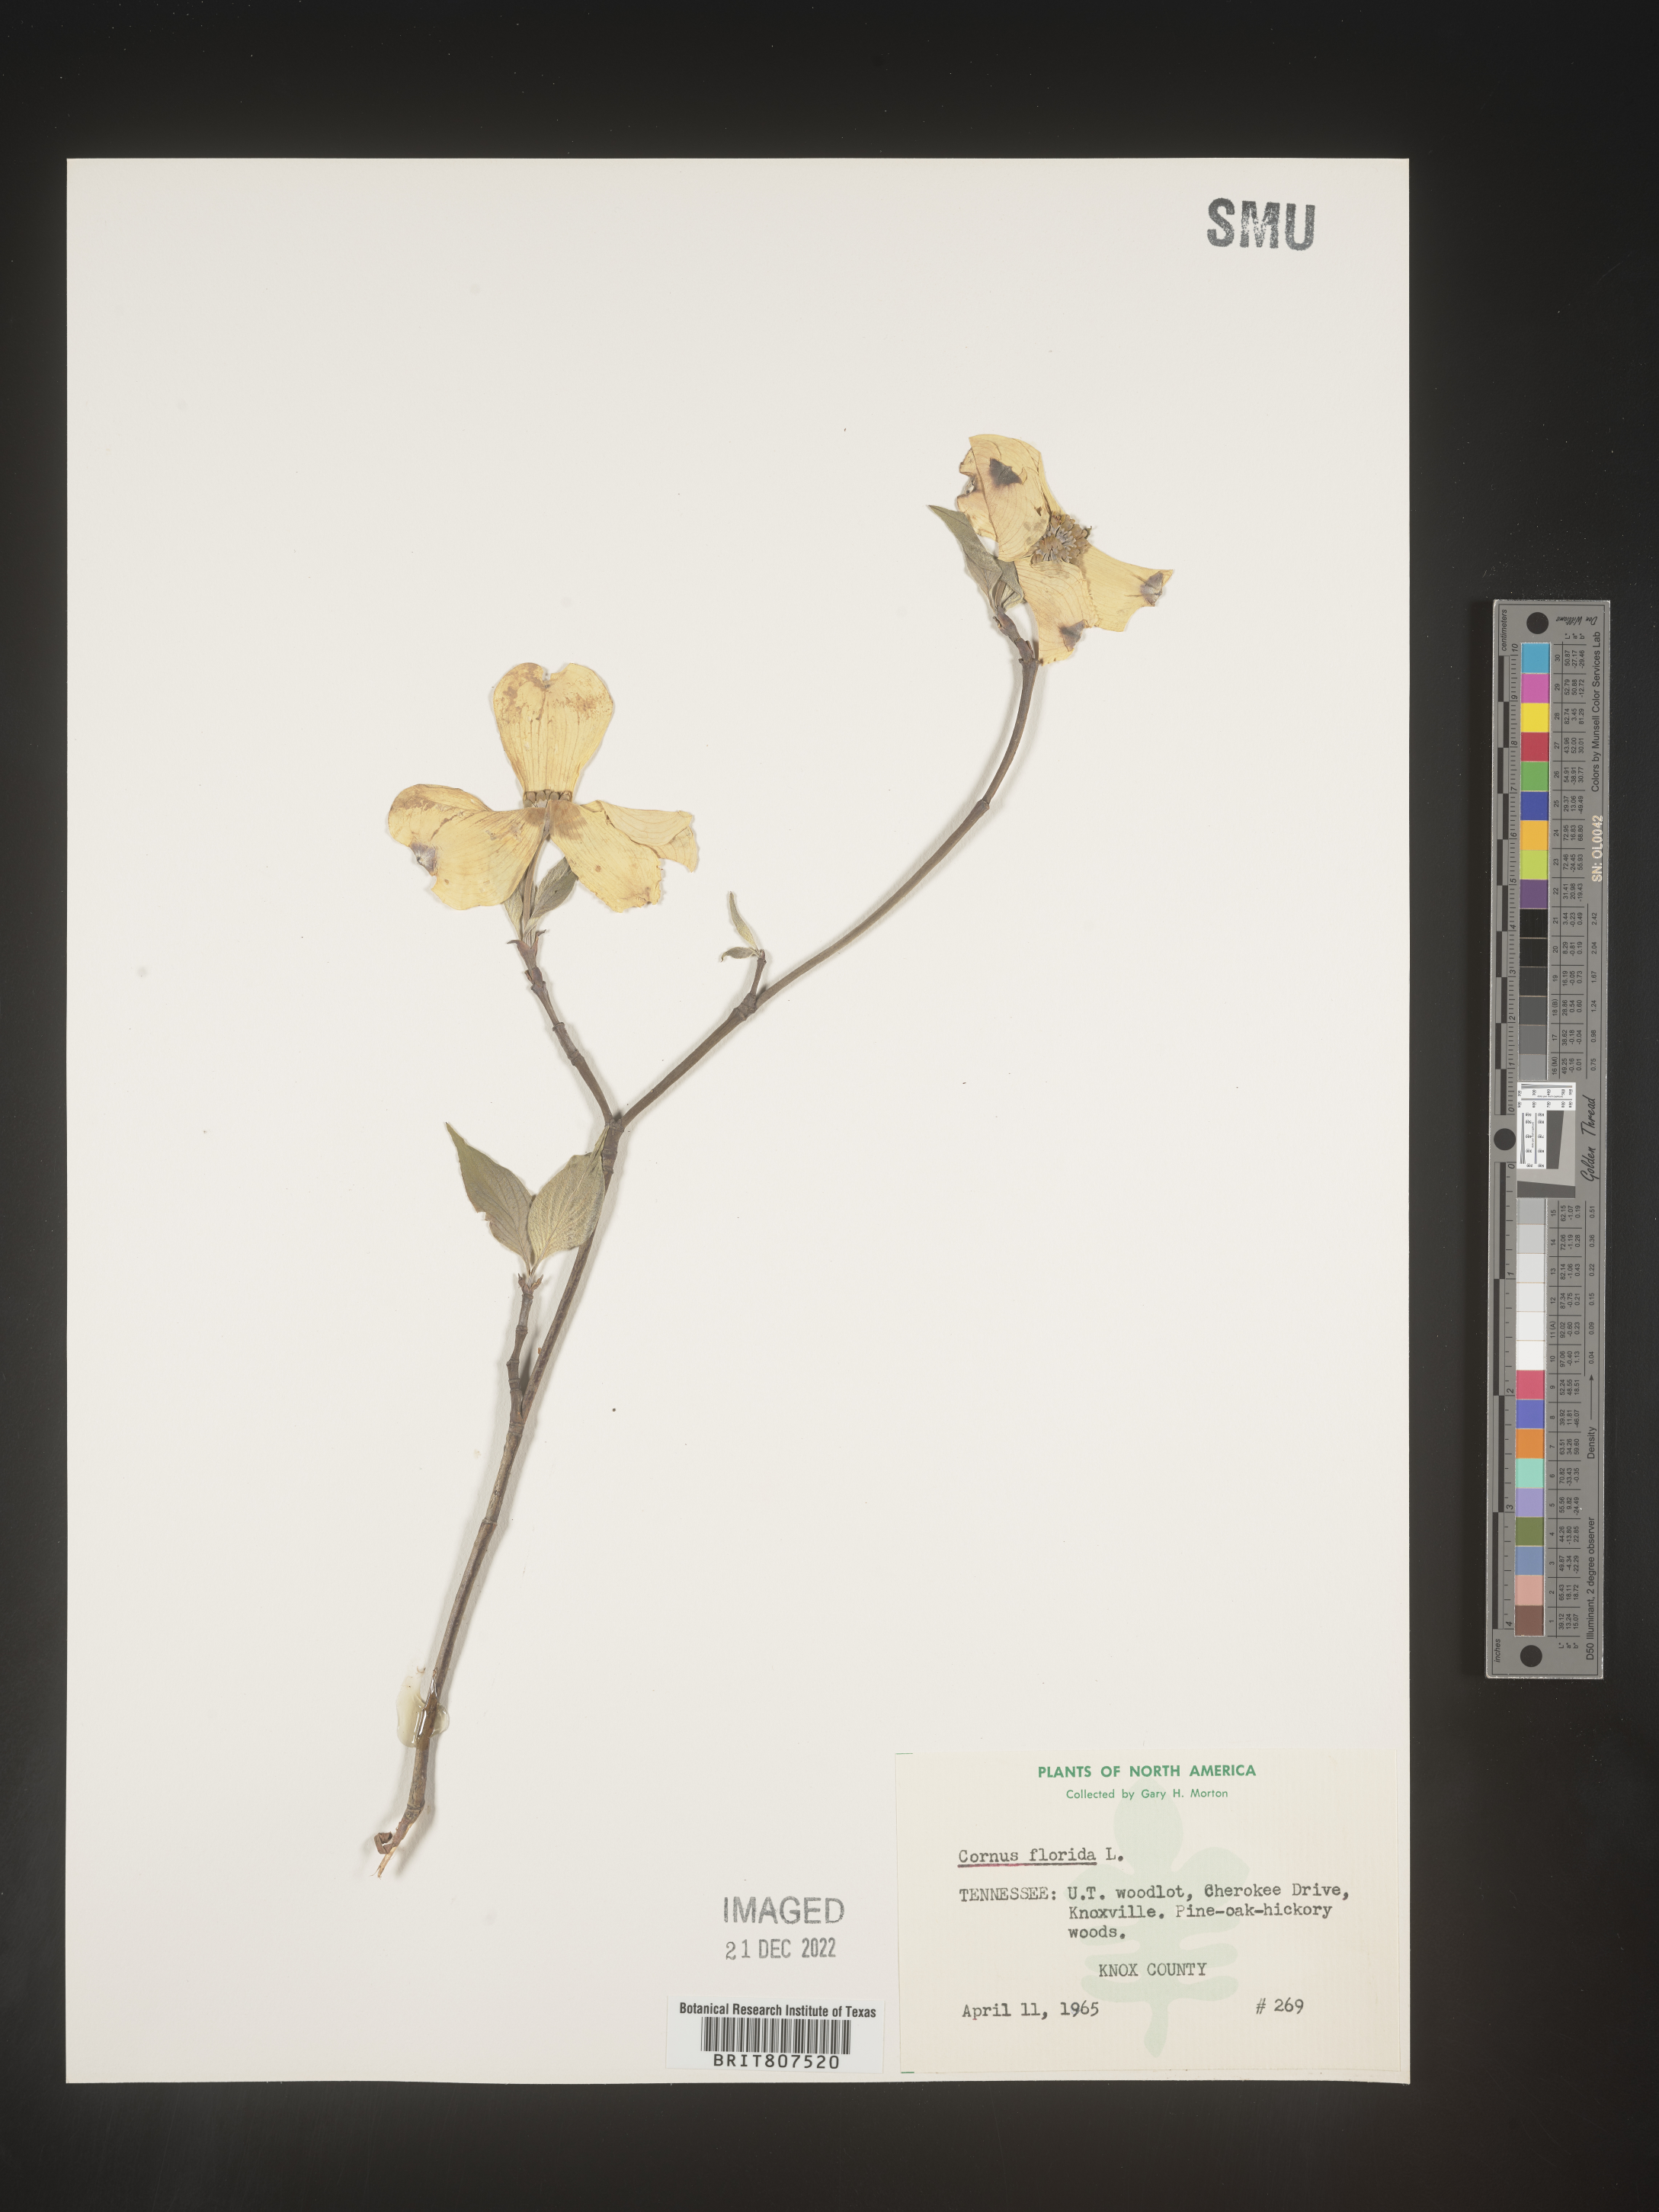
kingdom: Plantae
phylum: Tracheophyta
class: Magnoliopsida
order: Cornales
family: Cornaceae
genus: Cornus
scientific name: Cornus florida
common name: Flowering dogwood
